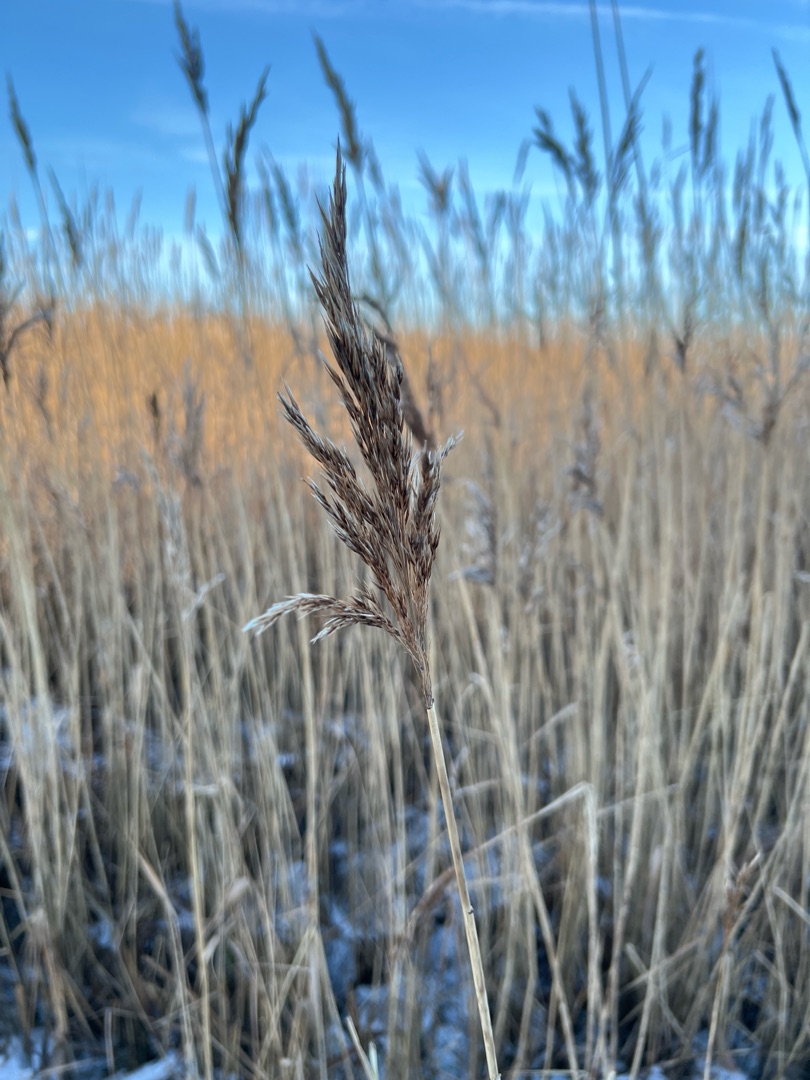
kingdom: Plantae
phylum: Tracheophyta
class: Liliopsida
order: Poales
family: Poaceae
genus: Phragmites
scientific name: Phragmites australis
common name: Tagrør
